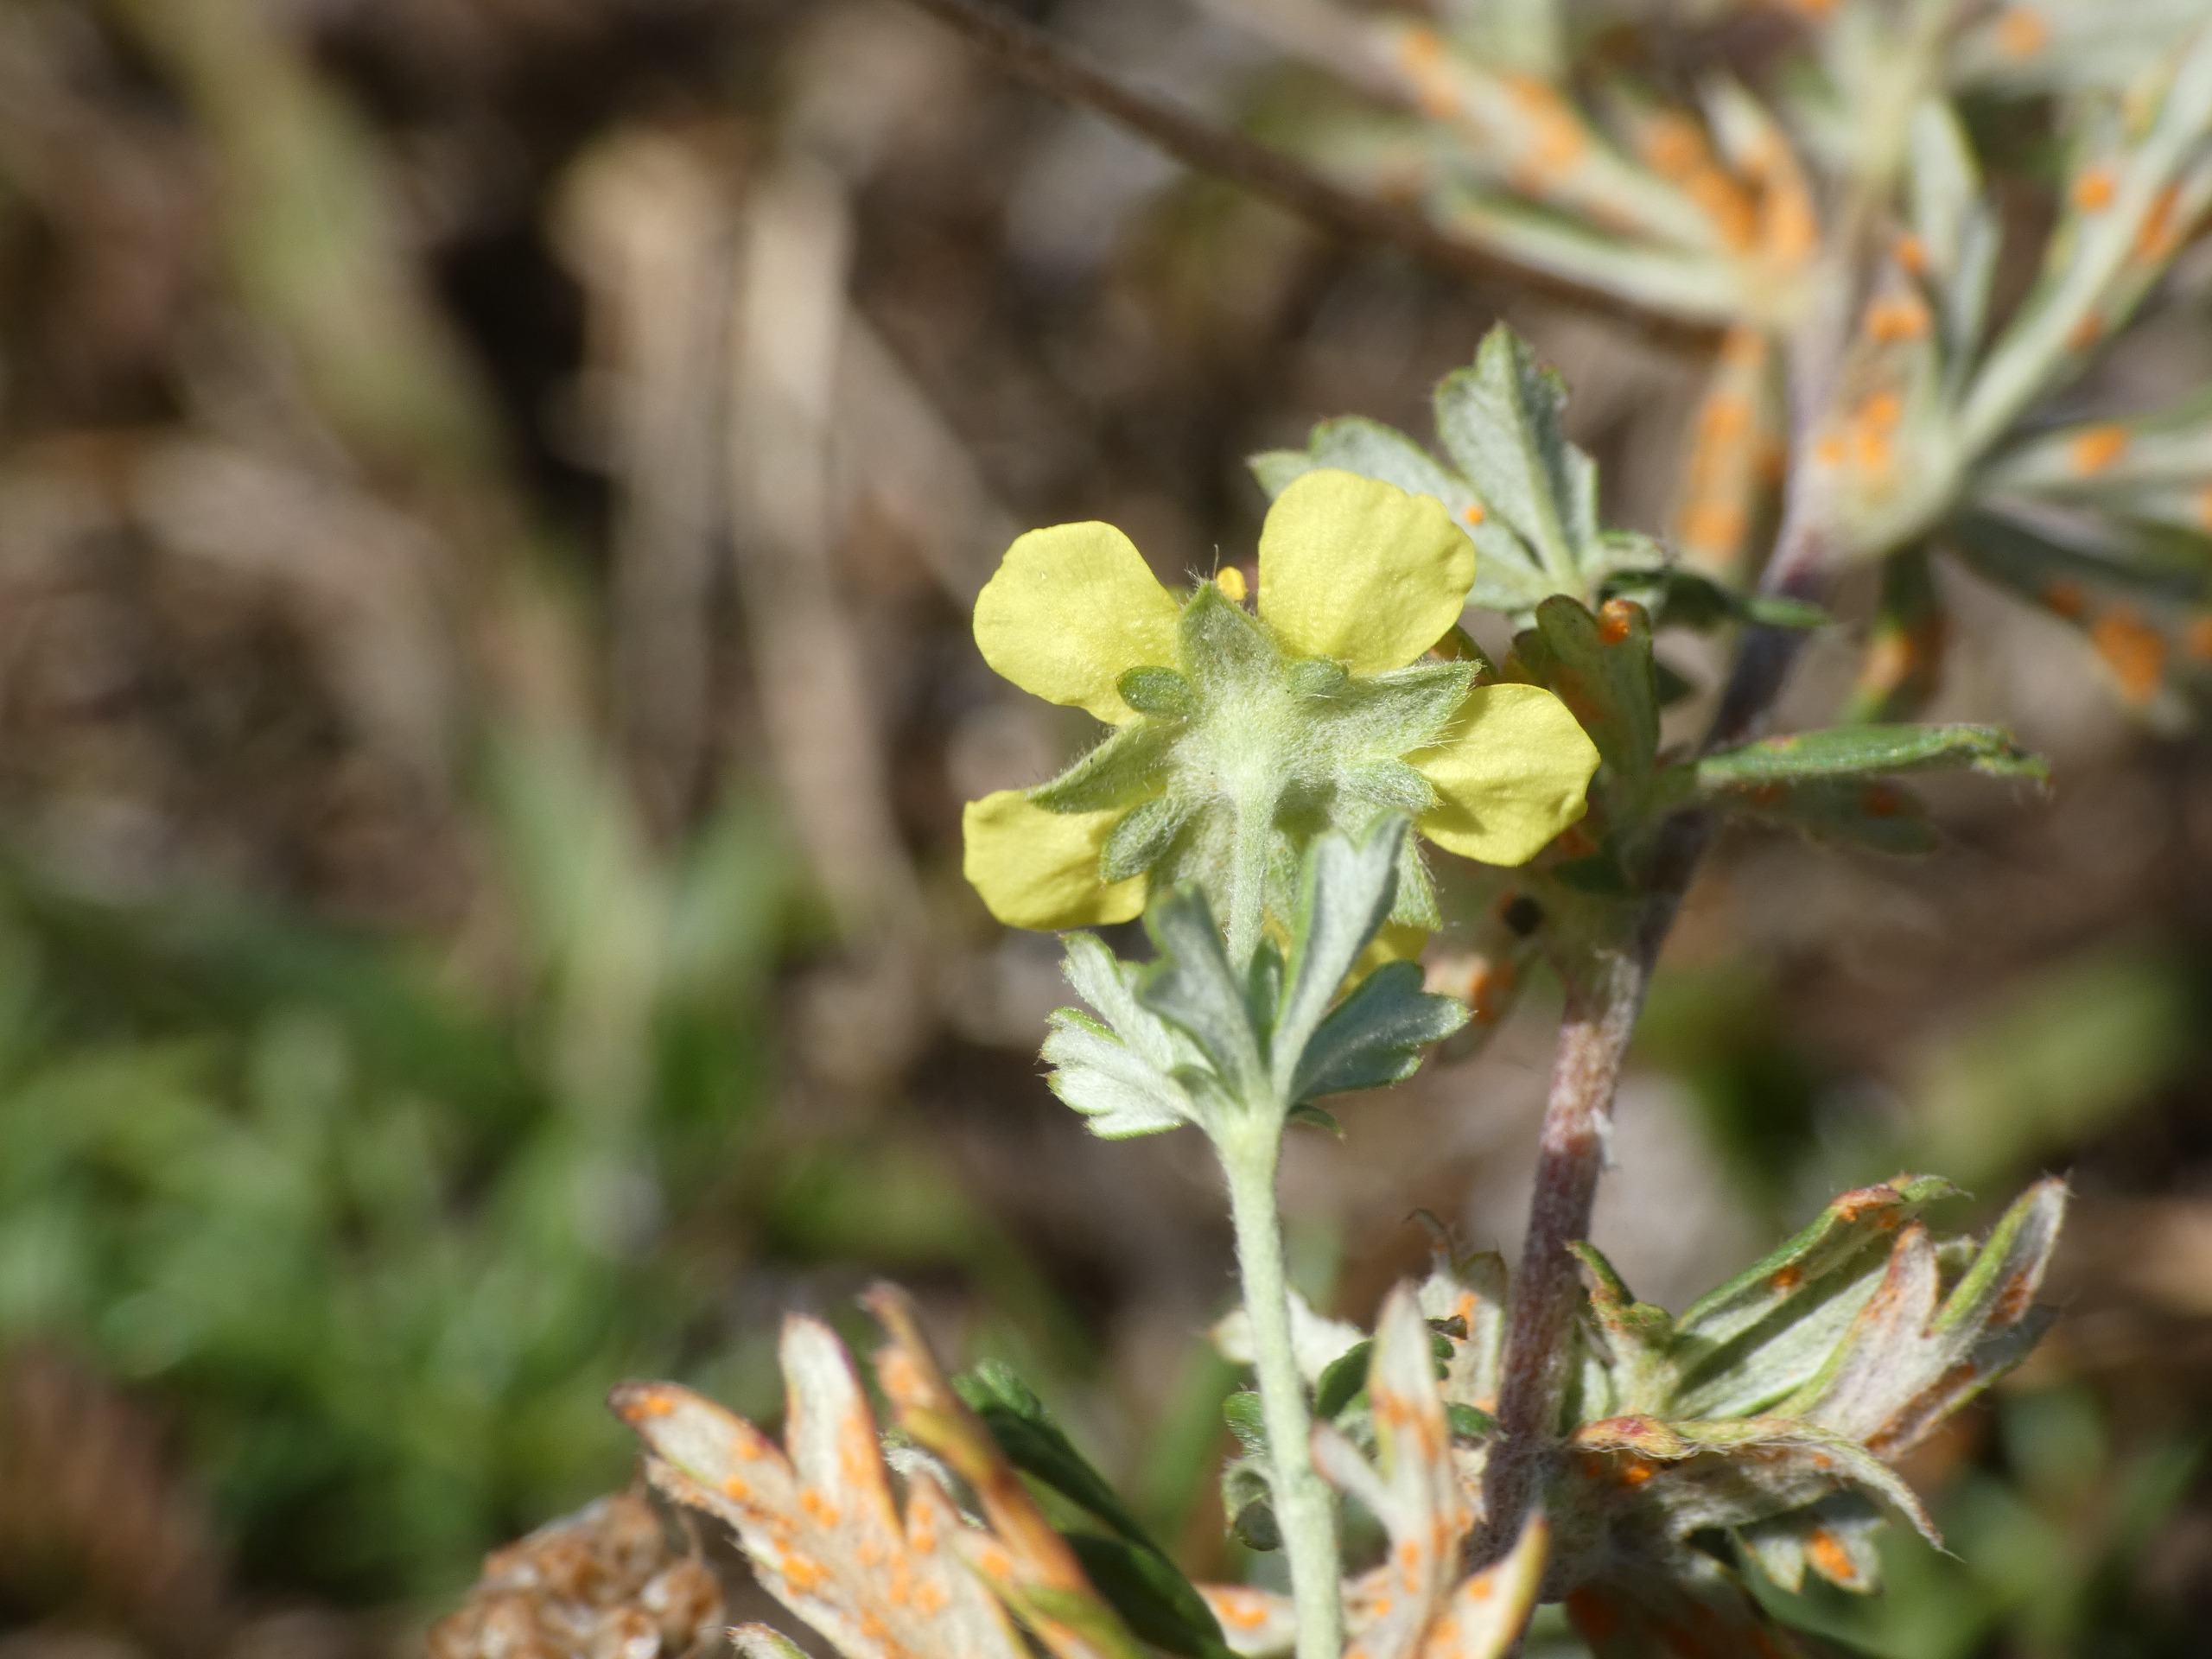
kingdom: Plantae
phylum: Tracheophyta
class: Magnoliopsida
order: Rosales
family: Rosaceae
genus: Potentilla
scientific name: Potentilla argentea
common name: Sølv-potentil
